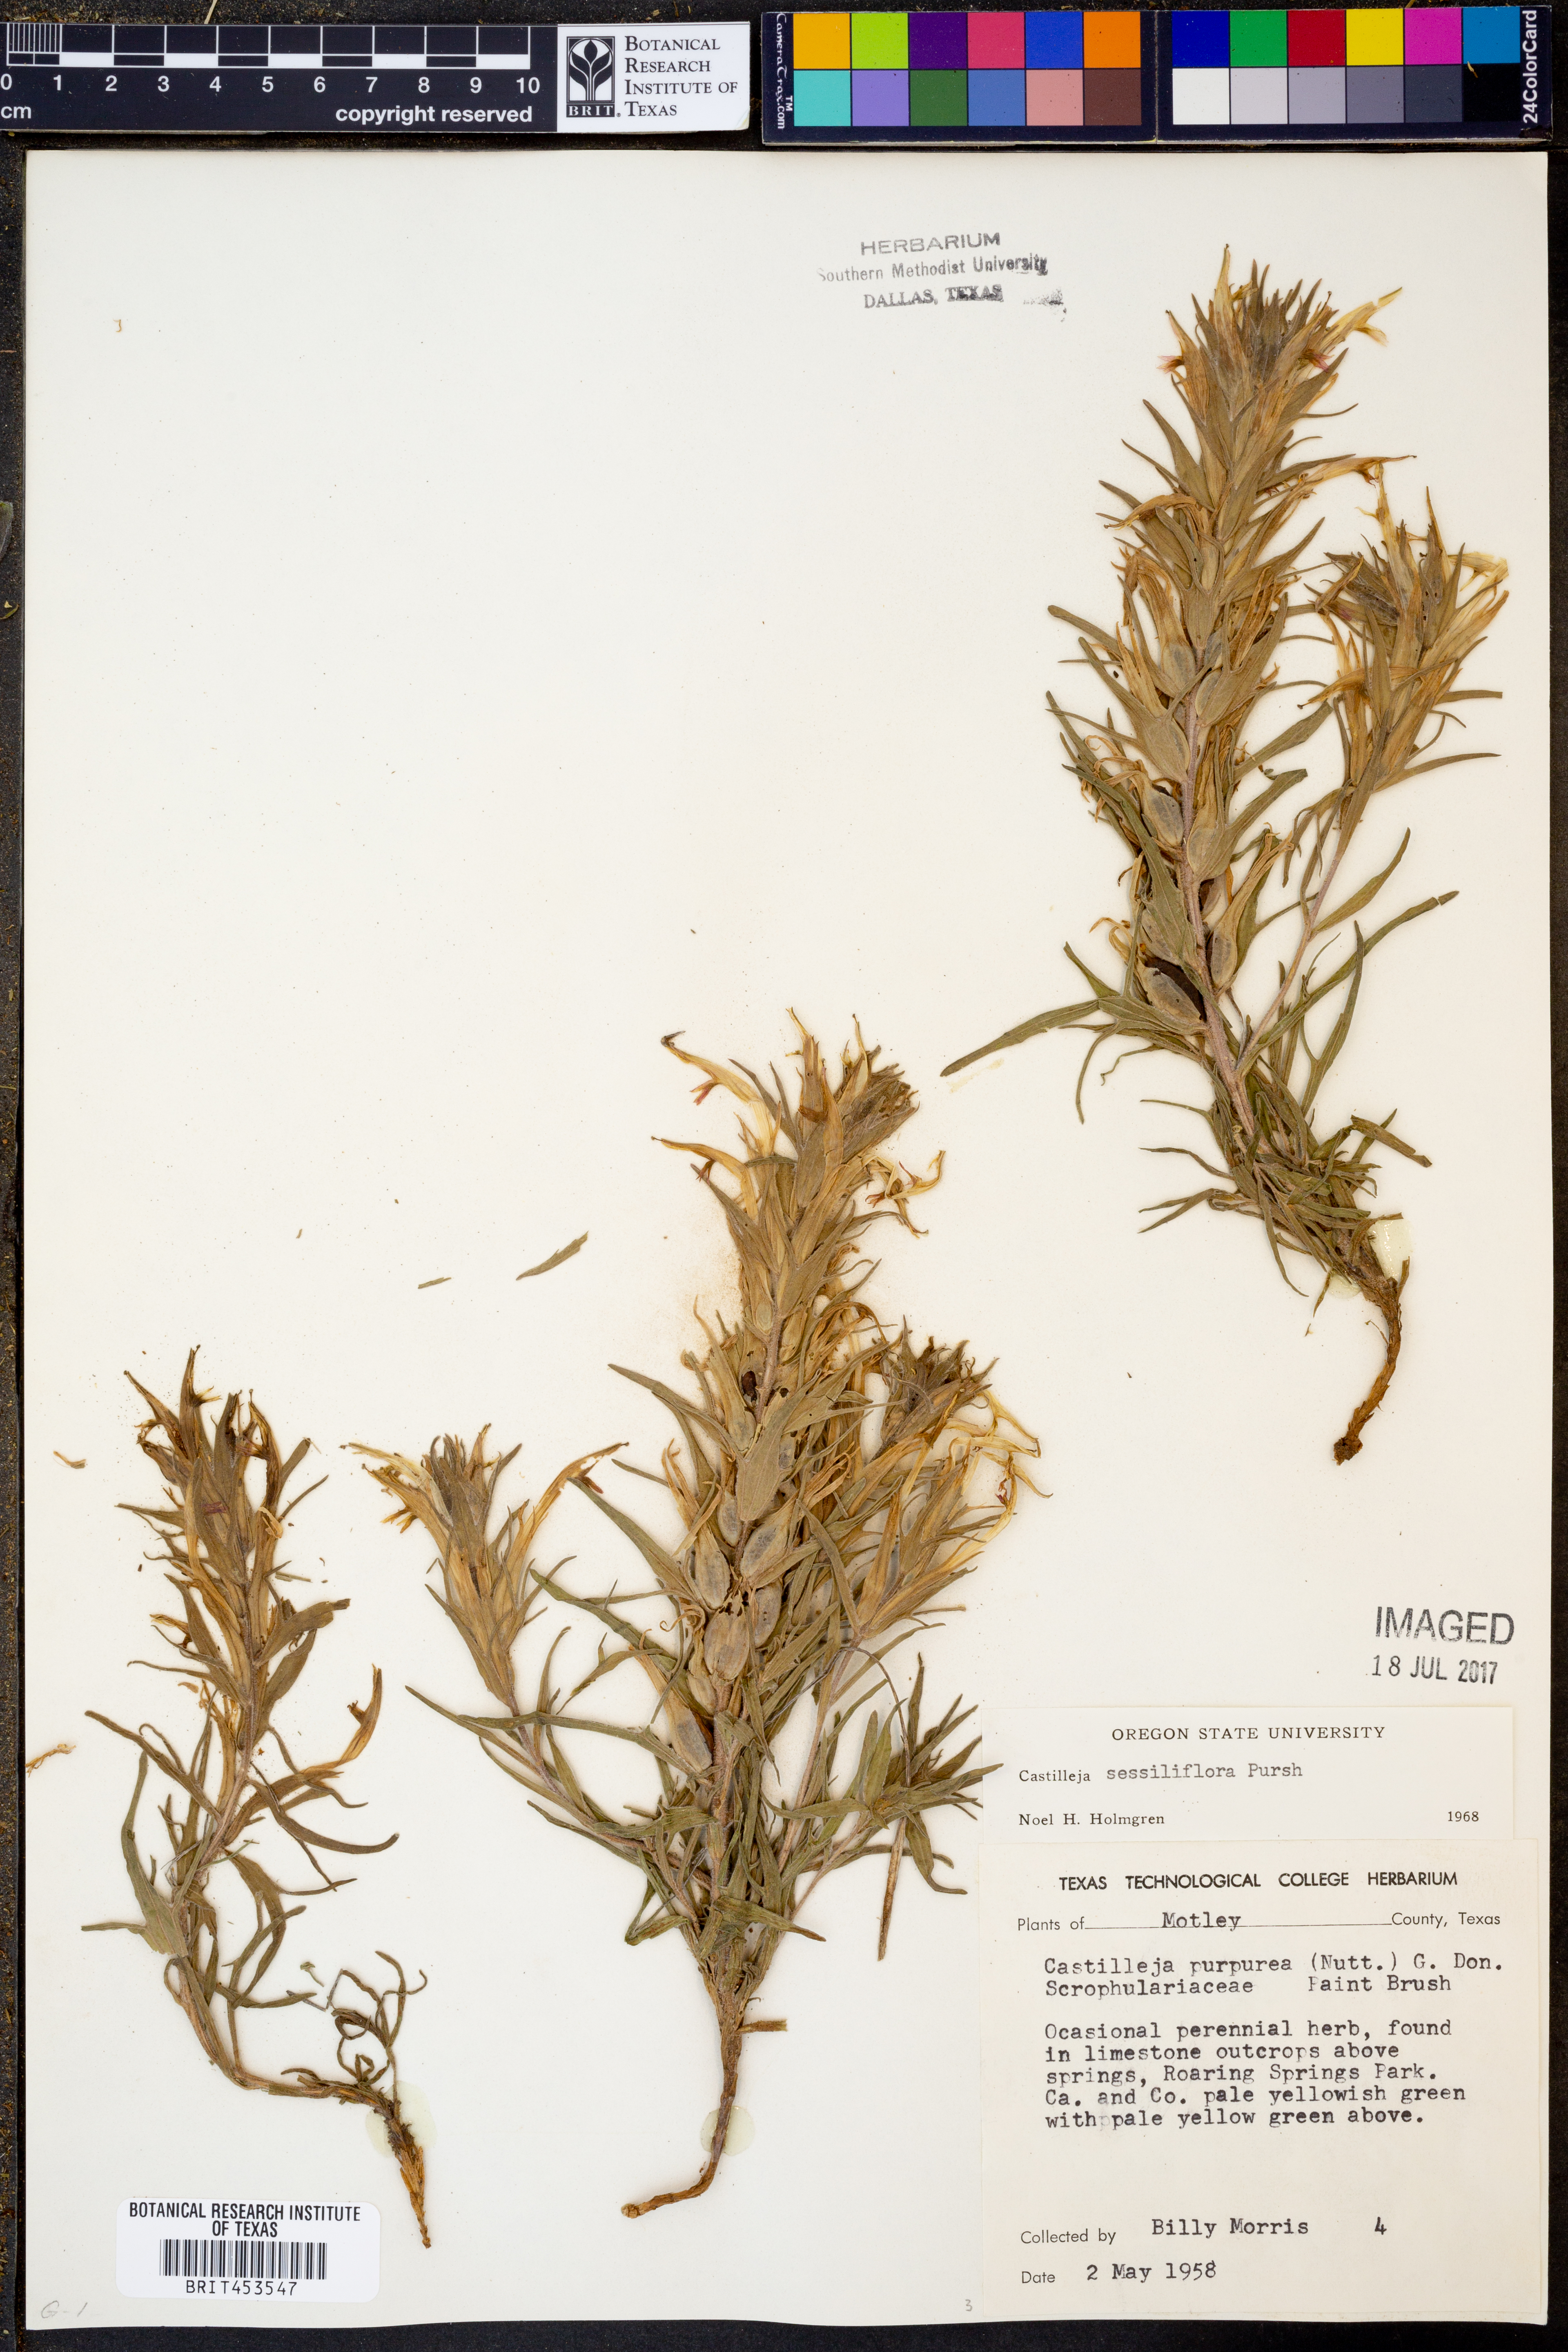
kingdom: Plantae
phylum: Tracheophyta
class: Magnoliopsida
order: Lamiales
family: Orobanchaceae
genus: Castilleja
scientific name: Castilleja sessiliflora
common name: Downy paintbrush
